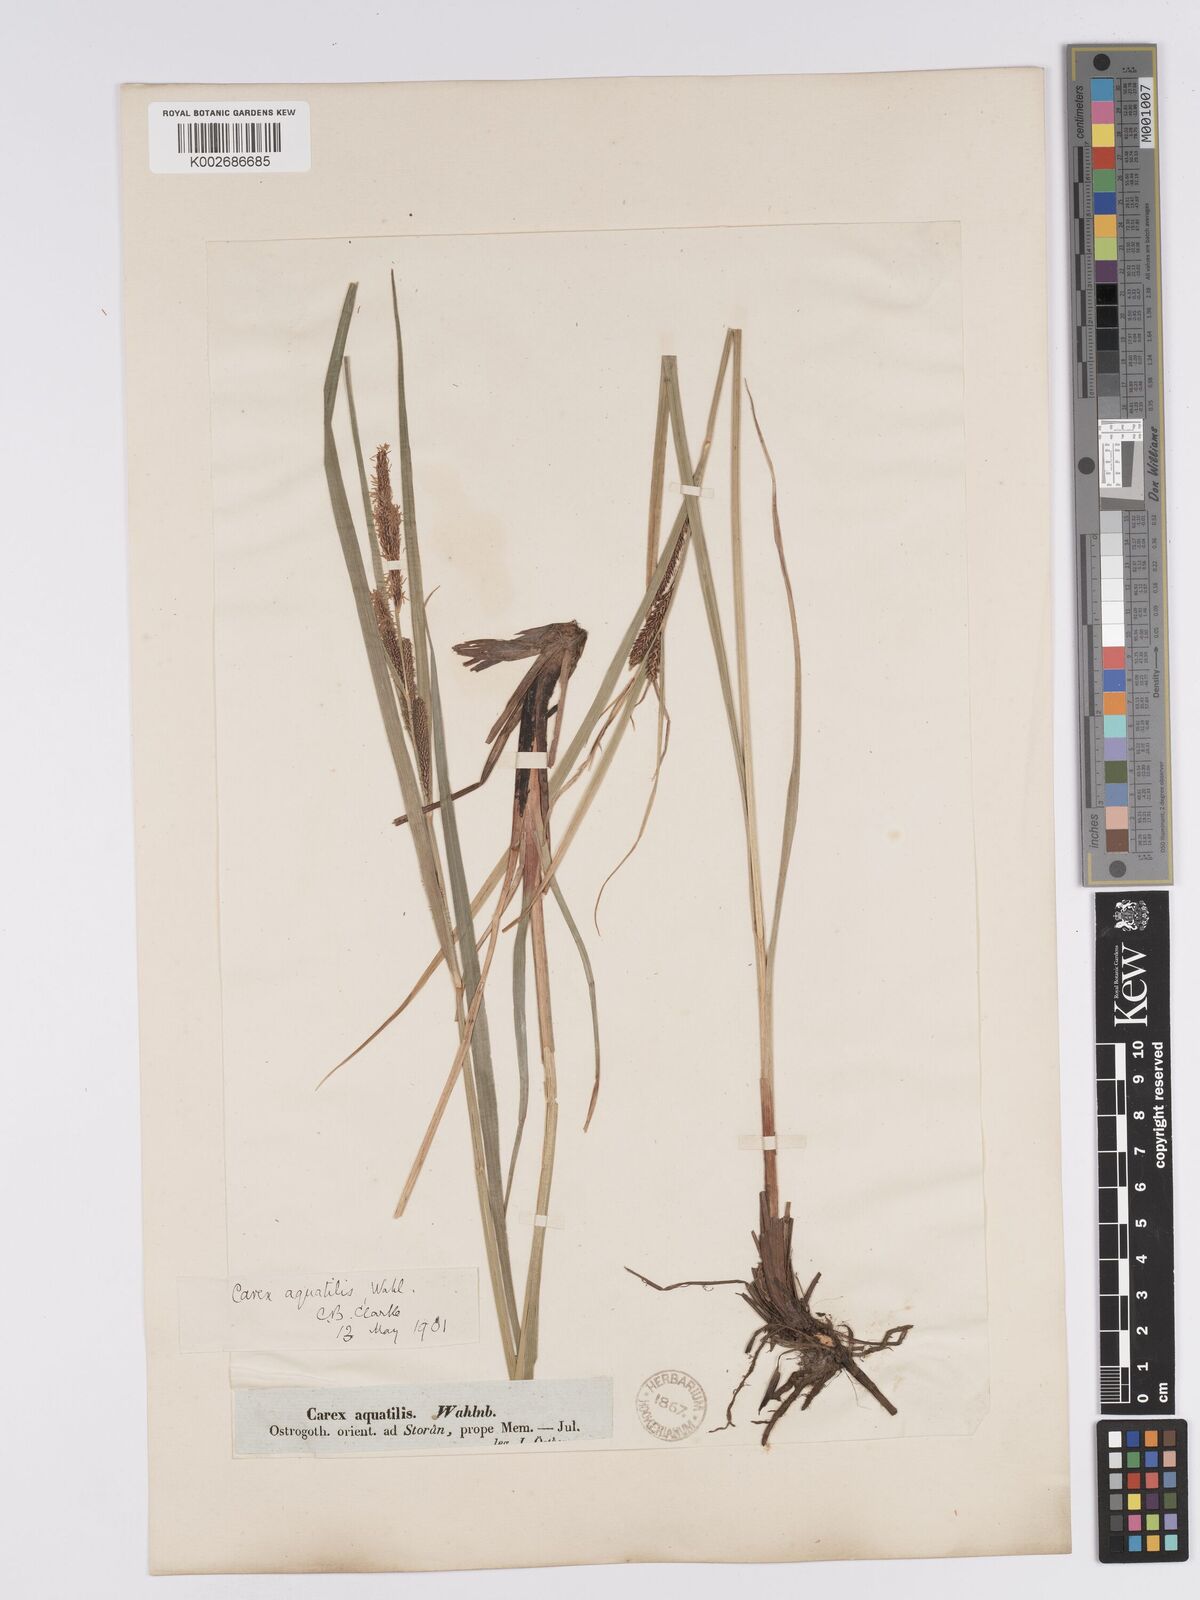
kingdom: Plantae
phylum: Tracheophyta
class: Liliopsida
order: Poales
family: Cyperaceae
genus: Carex
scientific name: Carex aquatilis
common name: Water sedge
